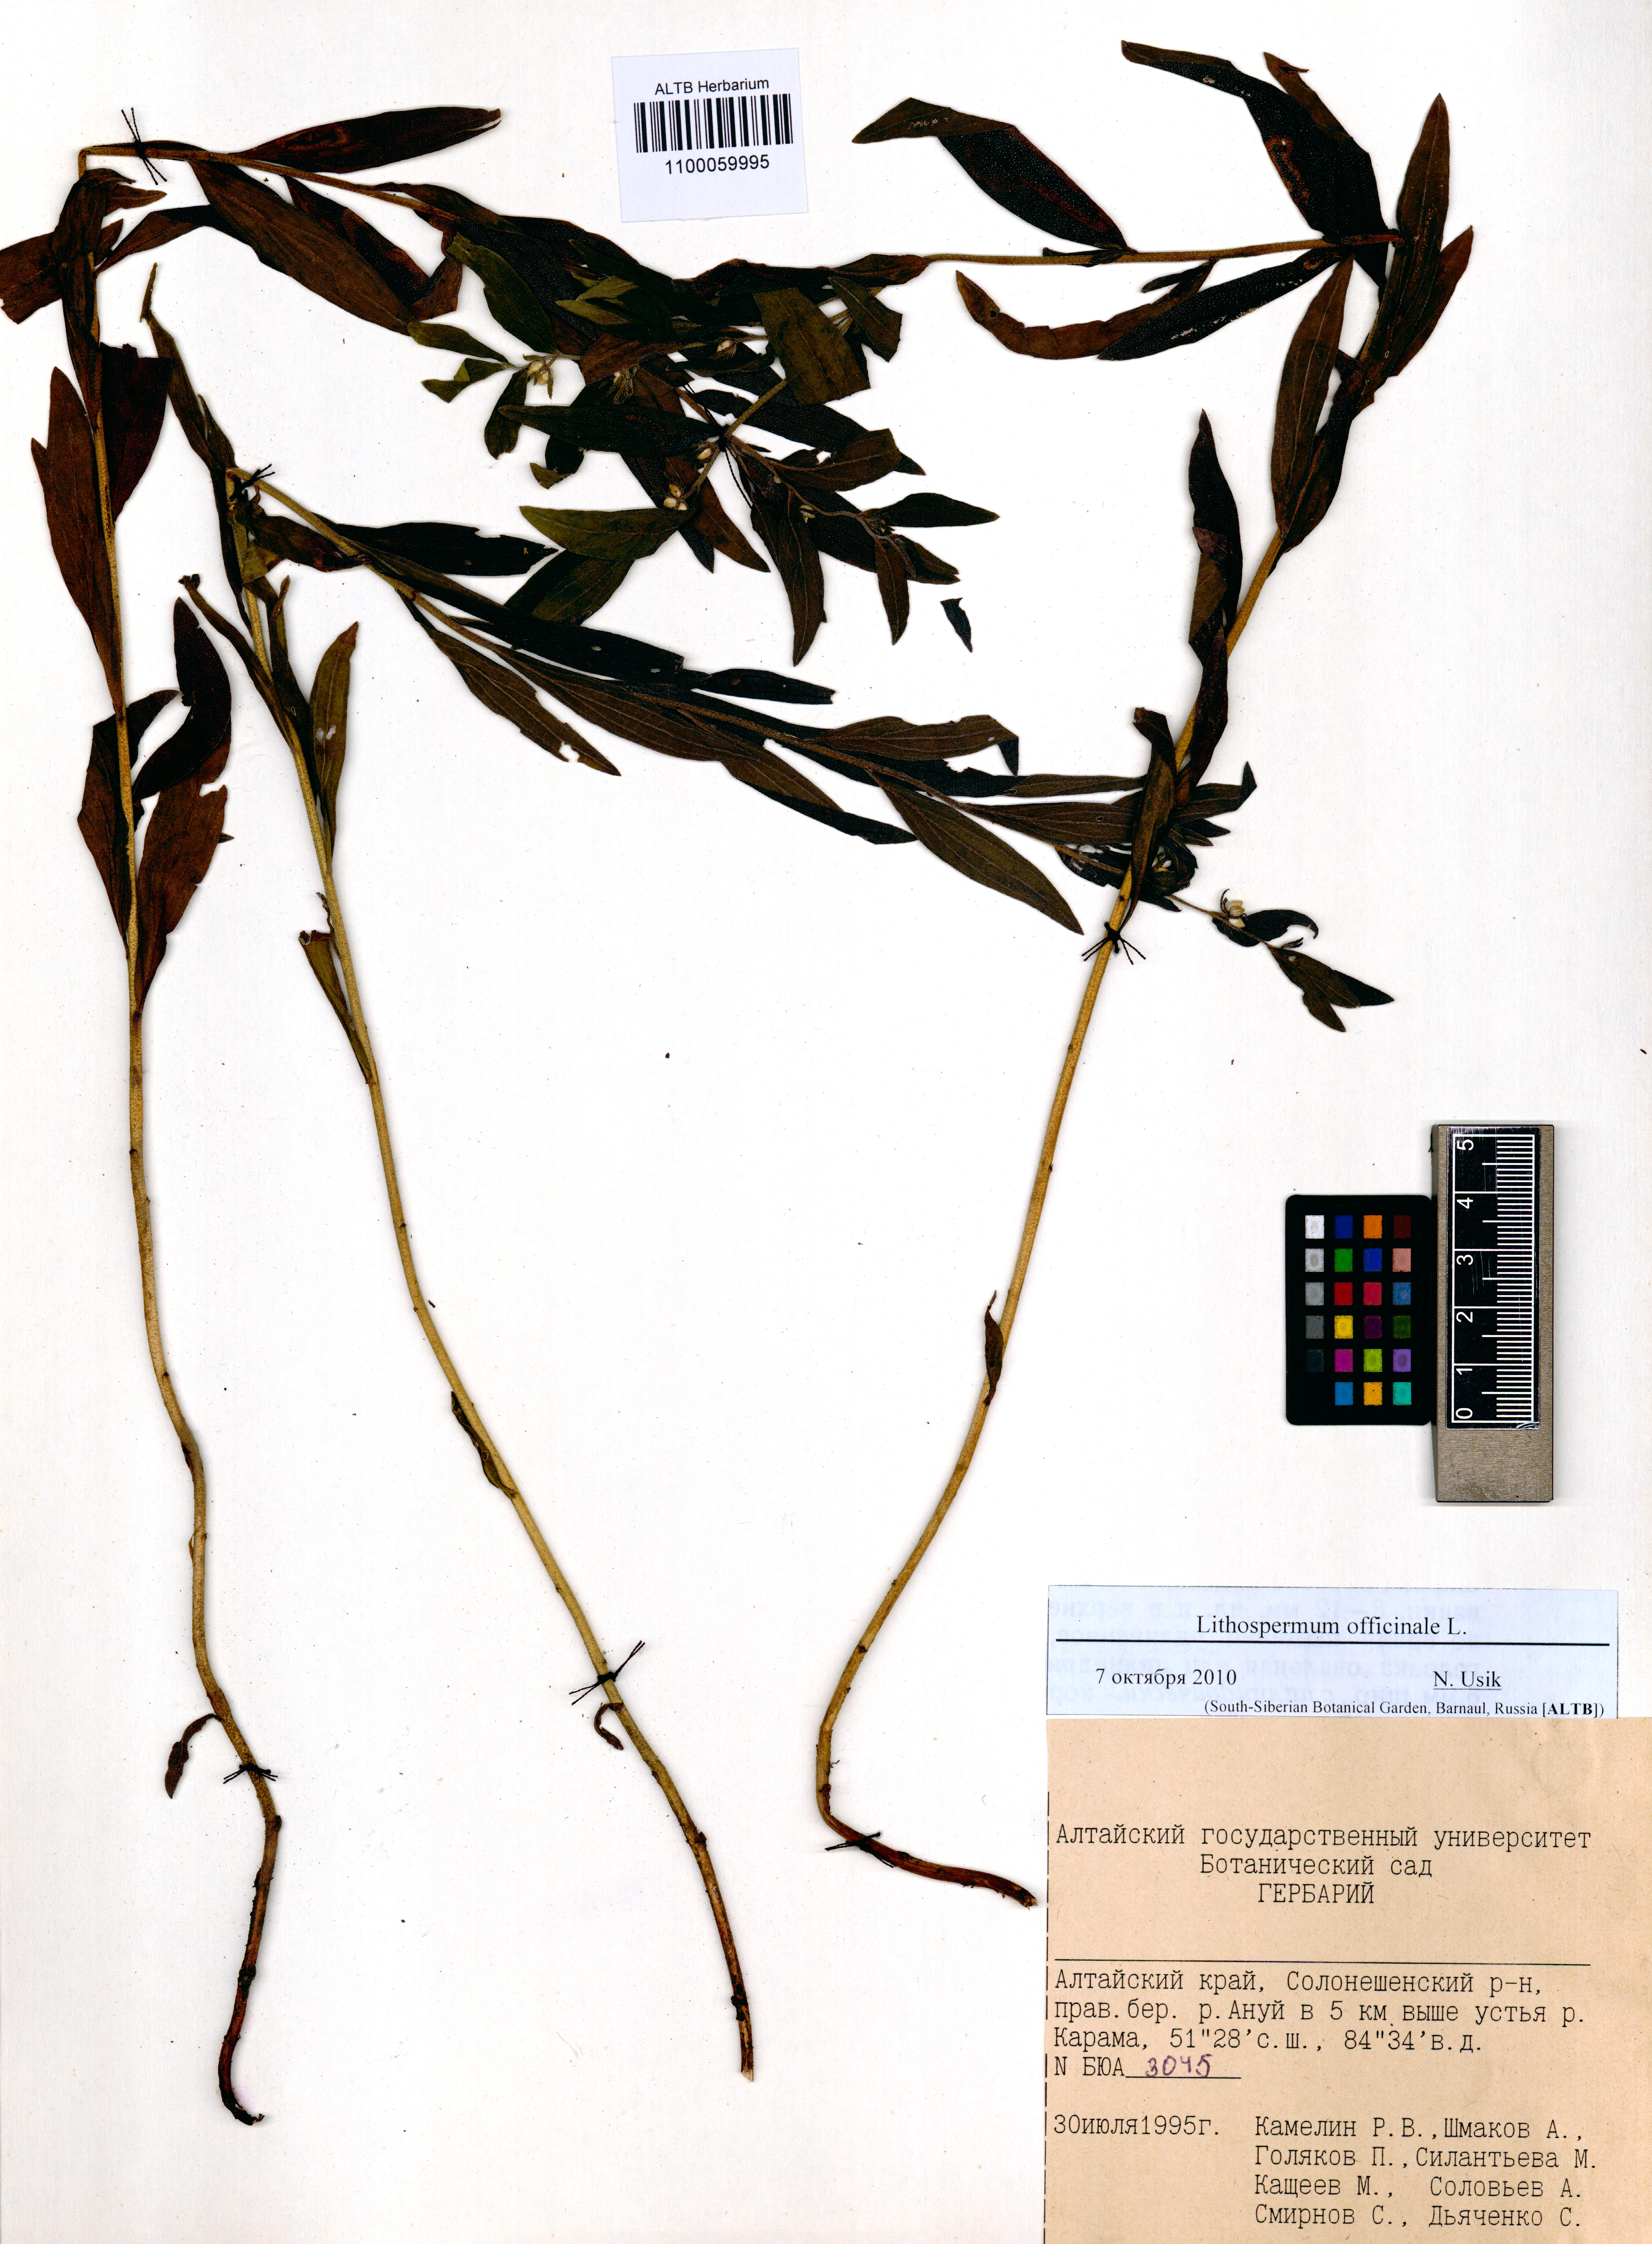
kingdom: Plantae
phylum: Tracheophyta
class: Magnoliopsida
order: Boraginales
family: Boraginaceae
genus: Lithospermum
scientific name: Lithospermum officinale
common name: Common gromwell
